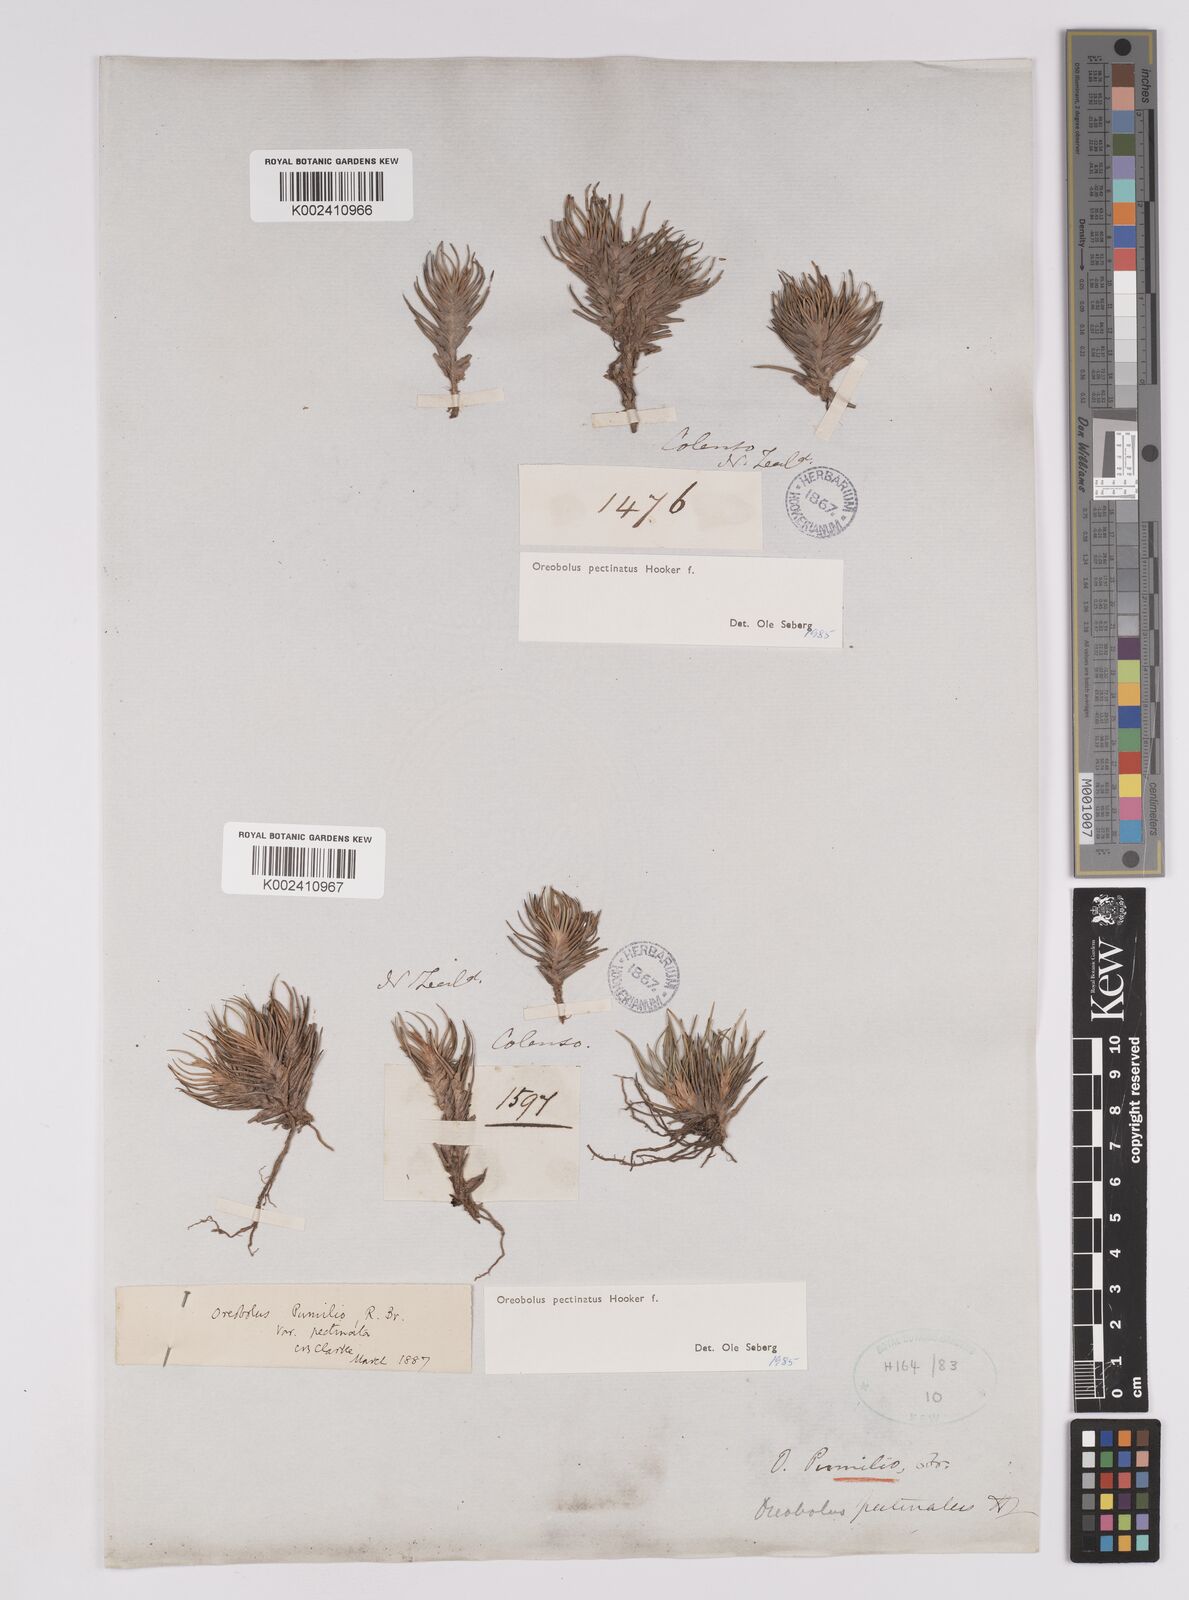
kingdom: Plantae
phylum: Tracheophyta
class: Liliopsida
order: Poales
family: Cyperaceae
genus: Oreobolus
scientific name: Oreobolus pectinatus
